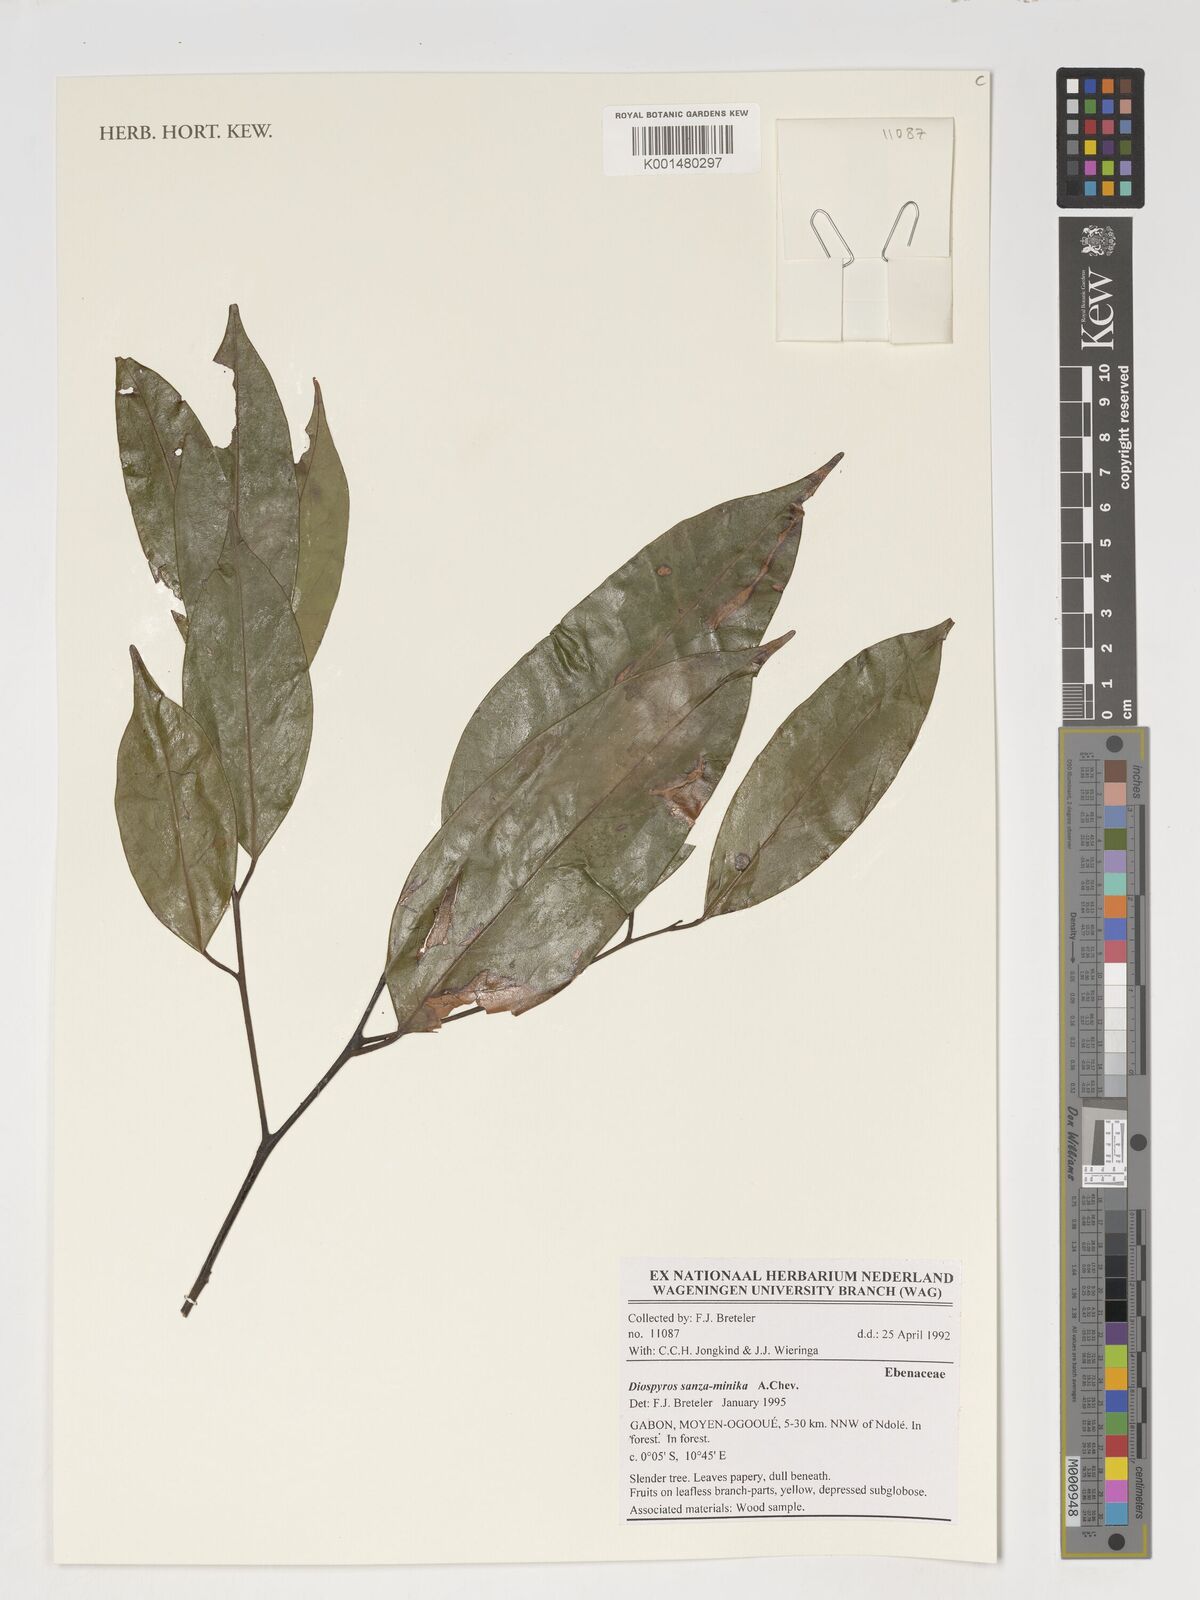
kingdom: Plantae
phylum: Tracheophyta
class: Magnoliopsida
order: Ericales
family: Ebenaceae
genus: Diospyros
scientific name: Diospyros sanza-minika
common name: Flint bark
